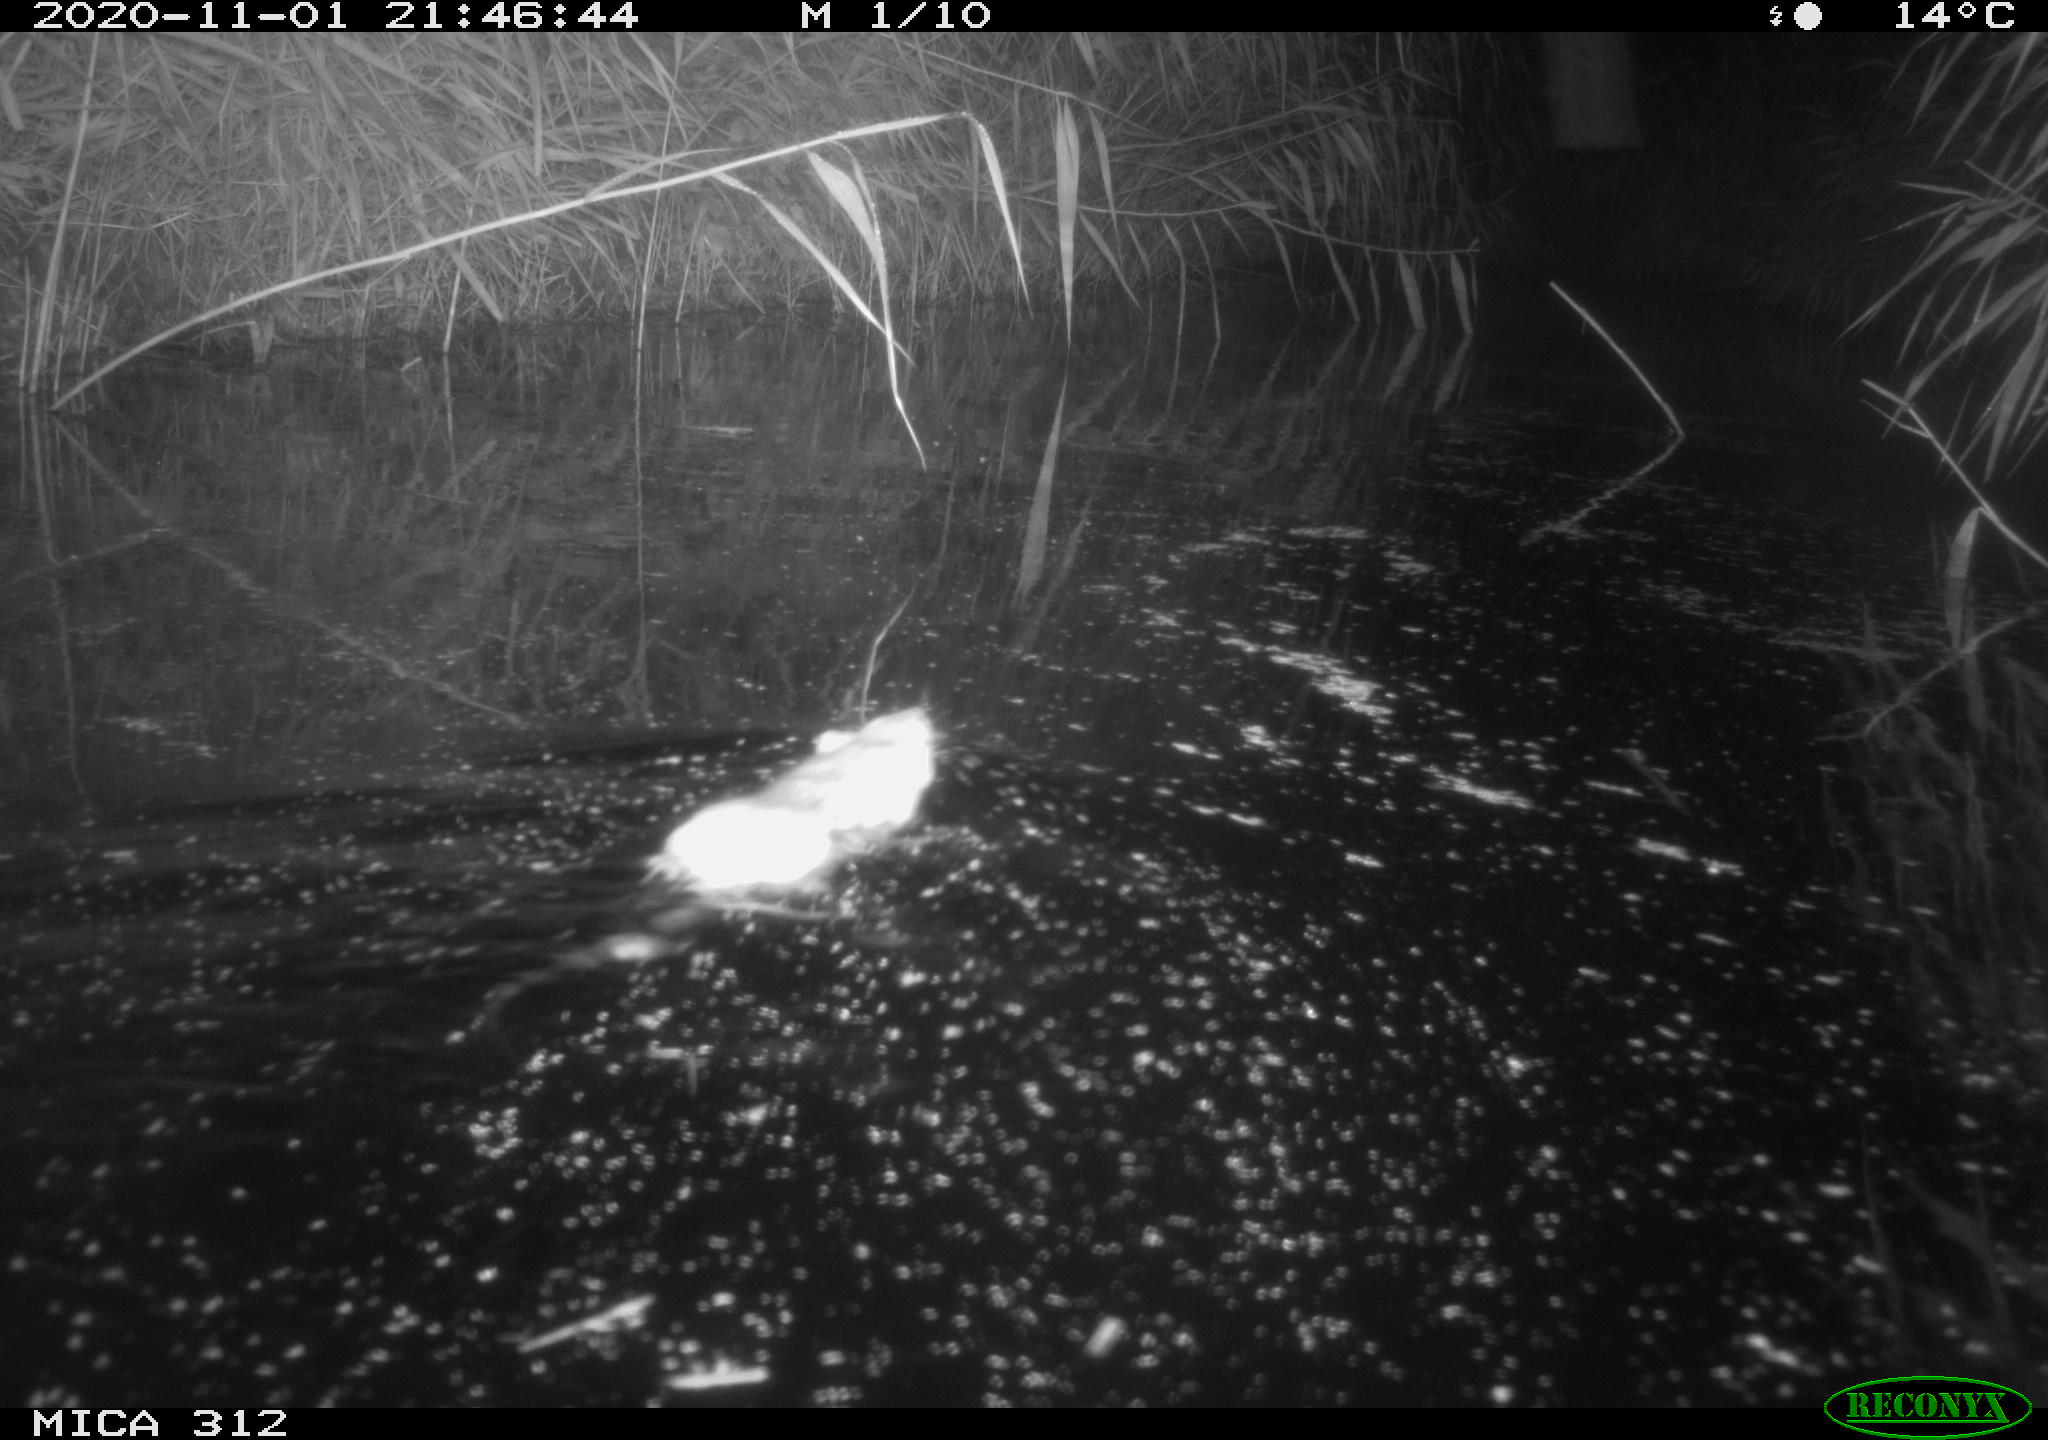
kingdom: Animalia
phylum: Chordata
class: Mammalia
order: Rodentia
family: Cricetidae
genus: Ondatra
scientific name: Ondatra zibethicus
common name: Muskrat
